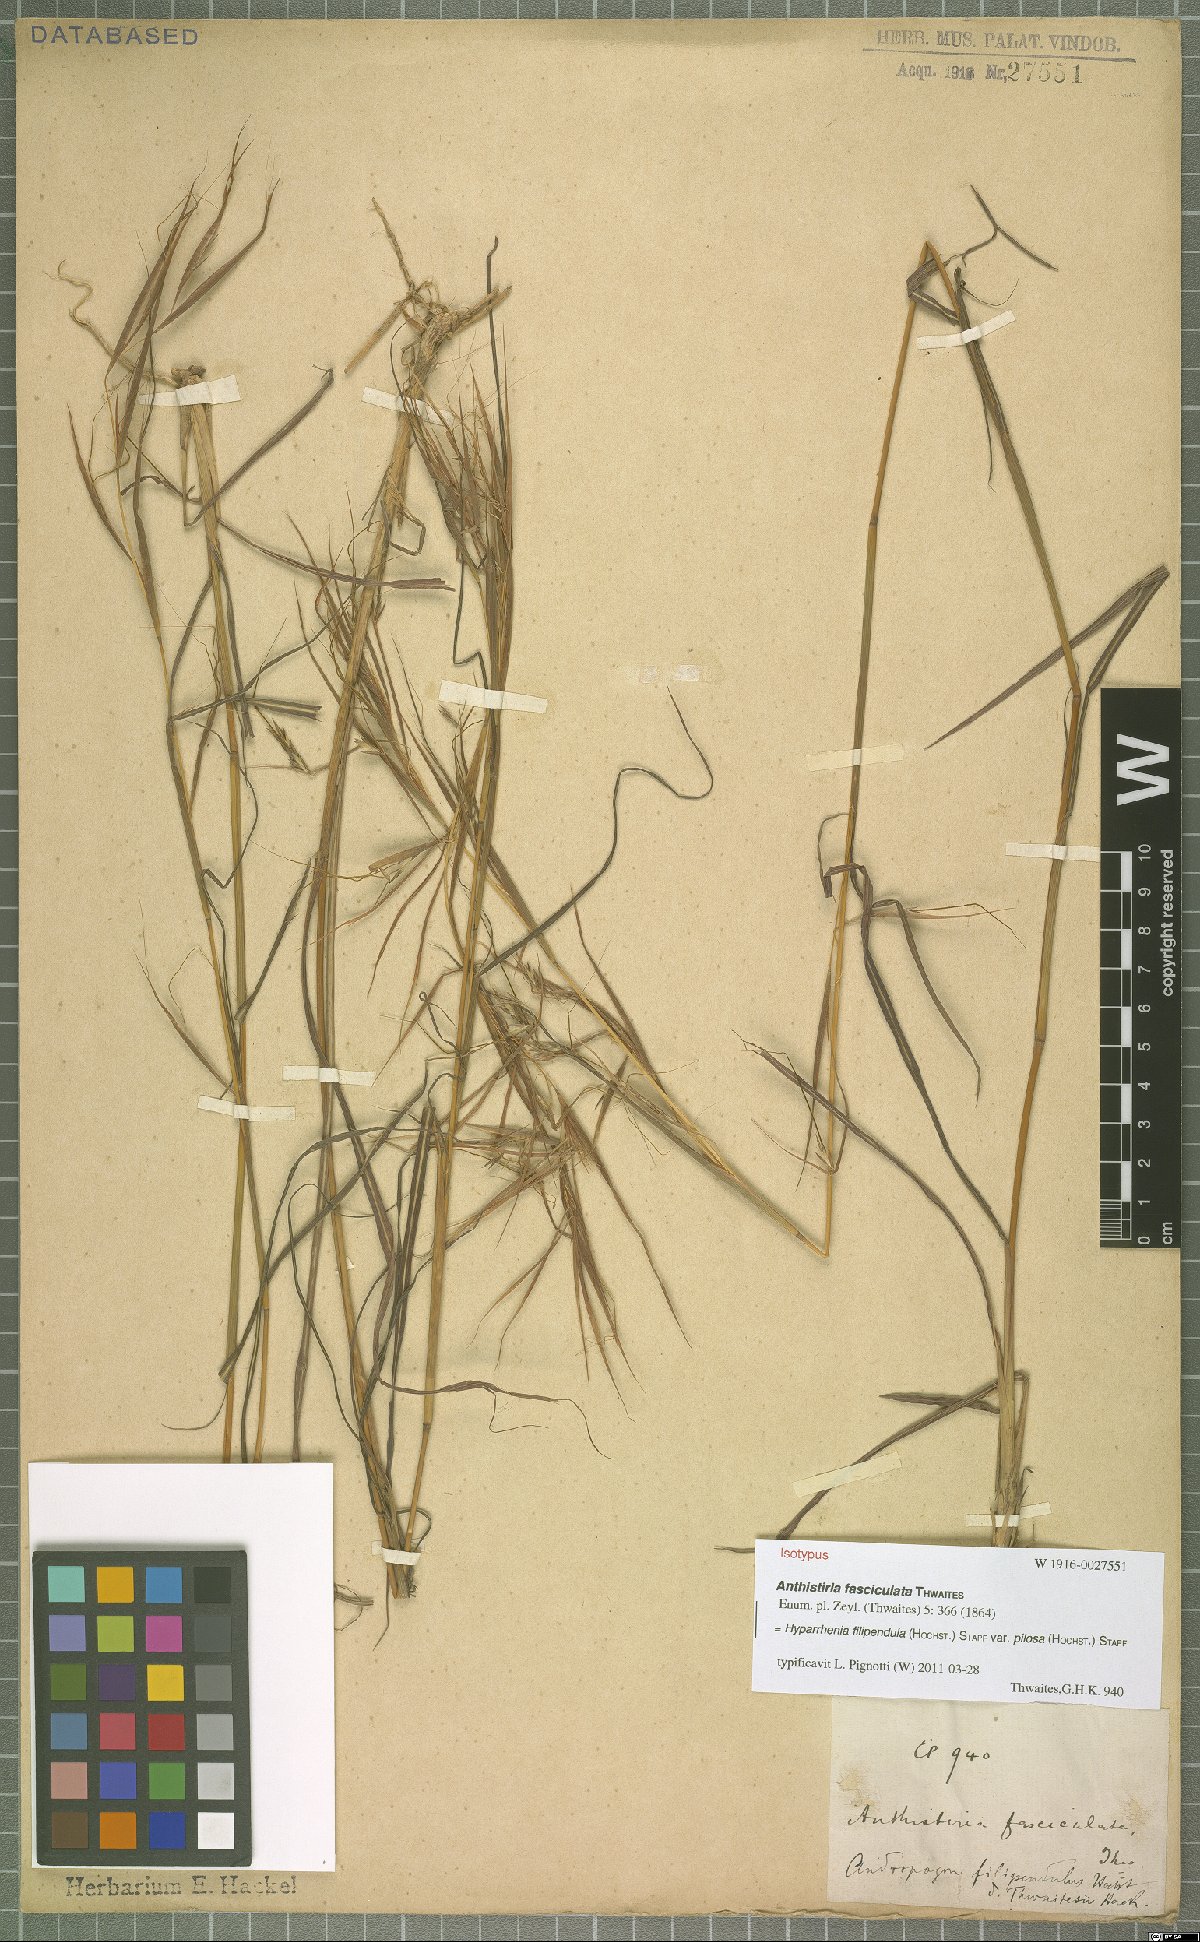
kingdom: Plantae
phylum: Tracheophyta
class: Liliopsida
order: Poales
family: Poaceae
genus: Hyparrhenia
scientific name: Hyparrhenia filipendula
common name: Tambookie grass
